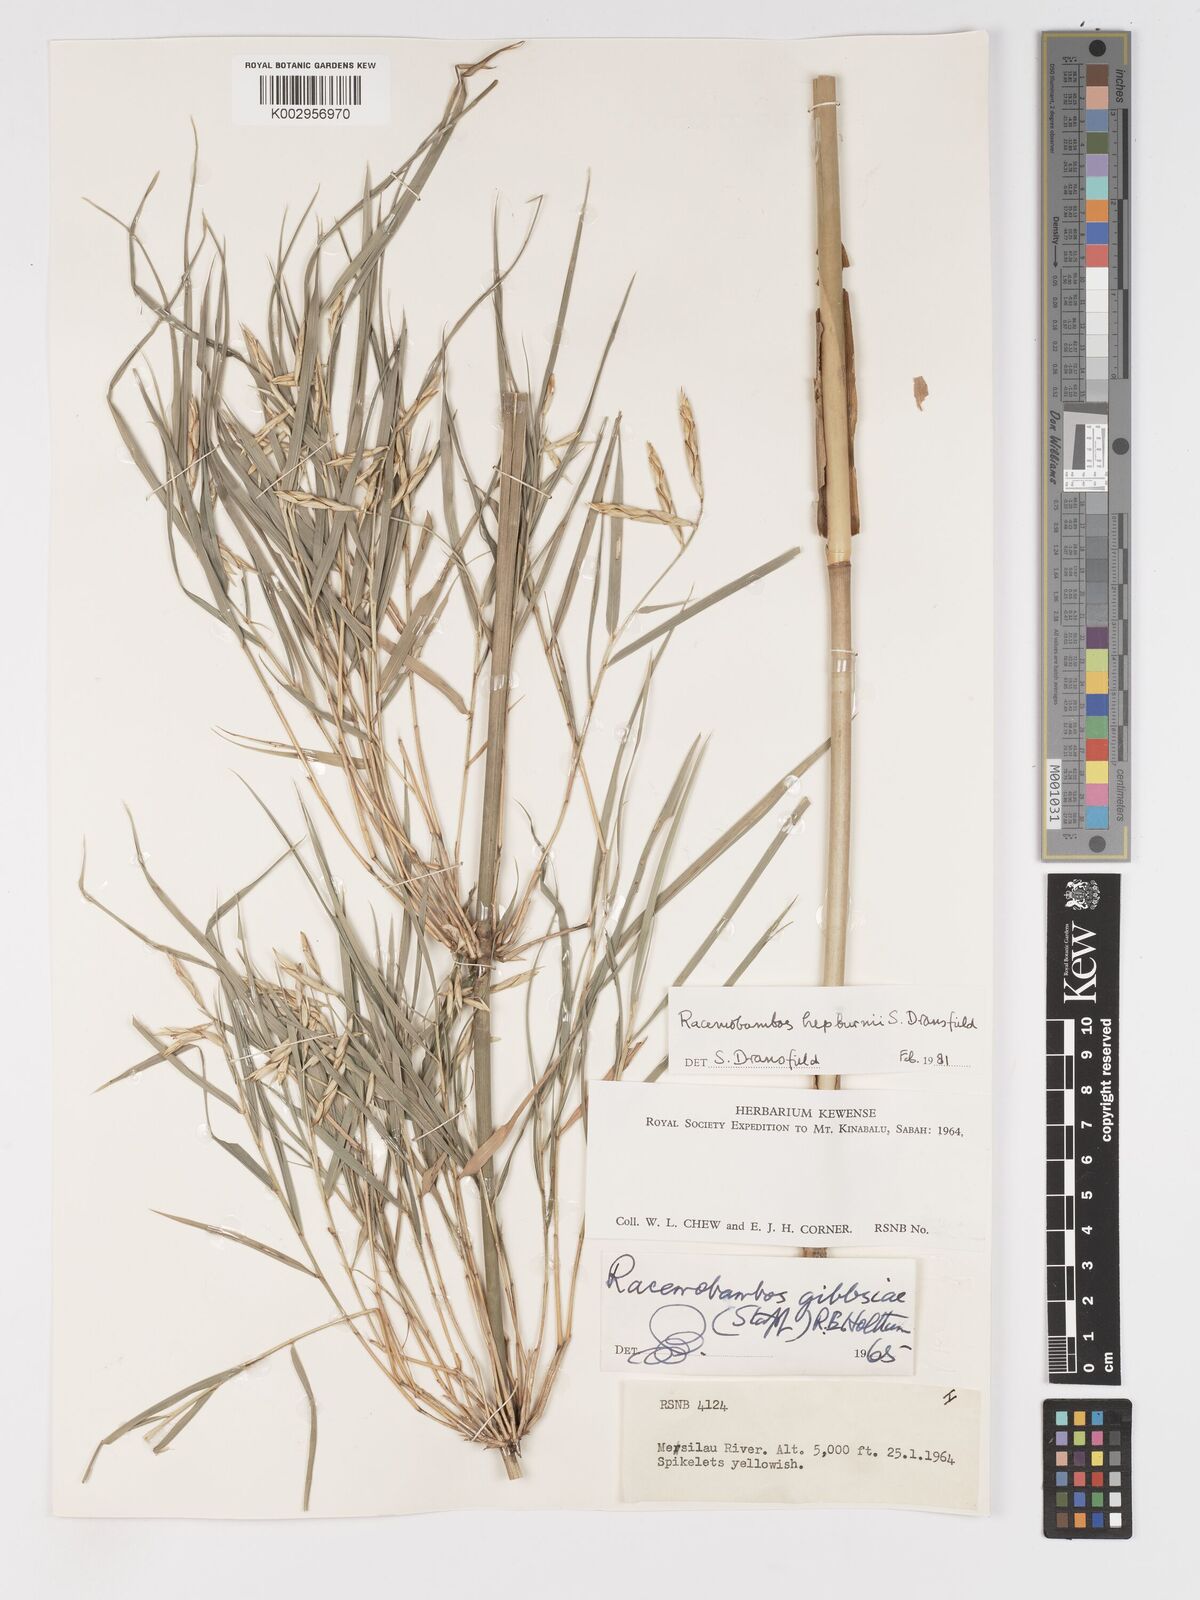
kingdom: Plantae
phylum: Tracheophyta
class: Liliopsida
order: Poales
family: Poaceae
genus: Racemobambos
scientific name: Racemobambos hepburnii
